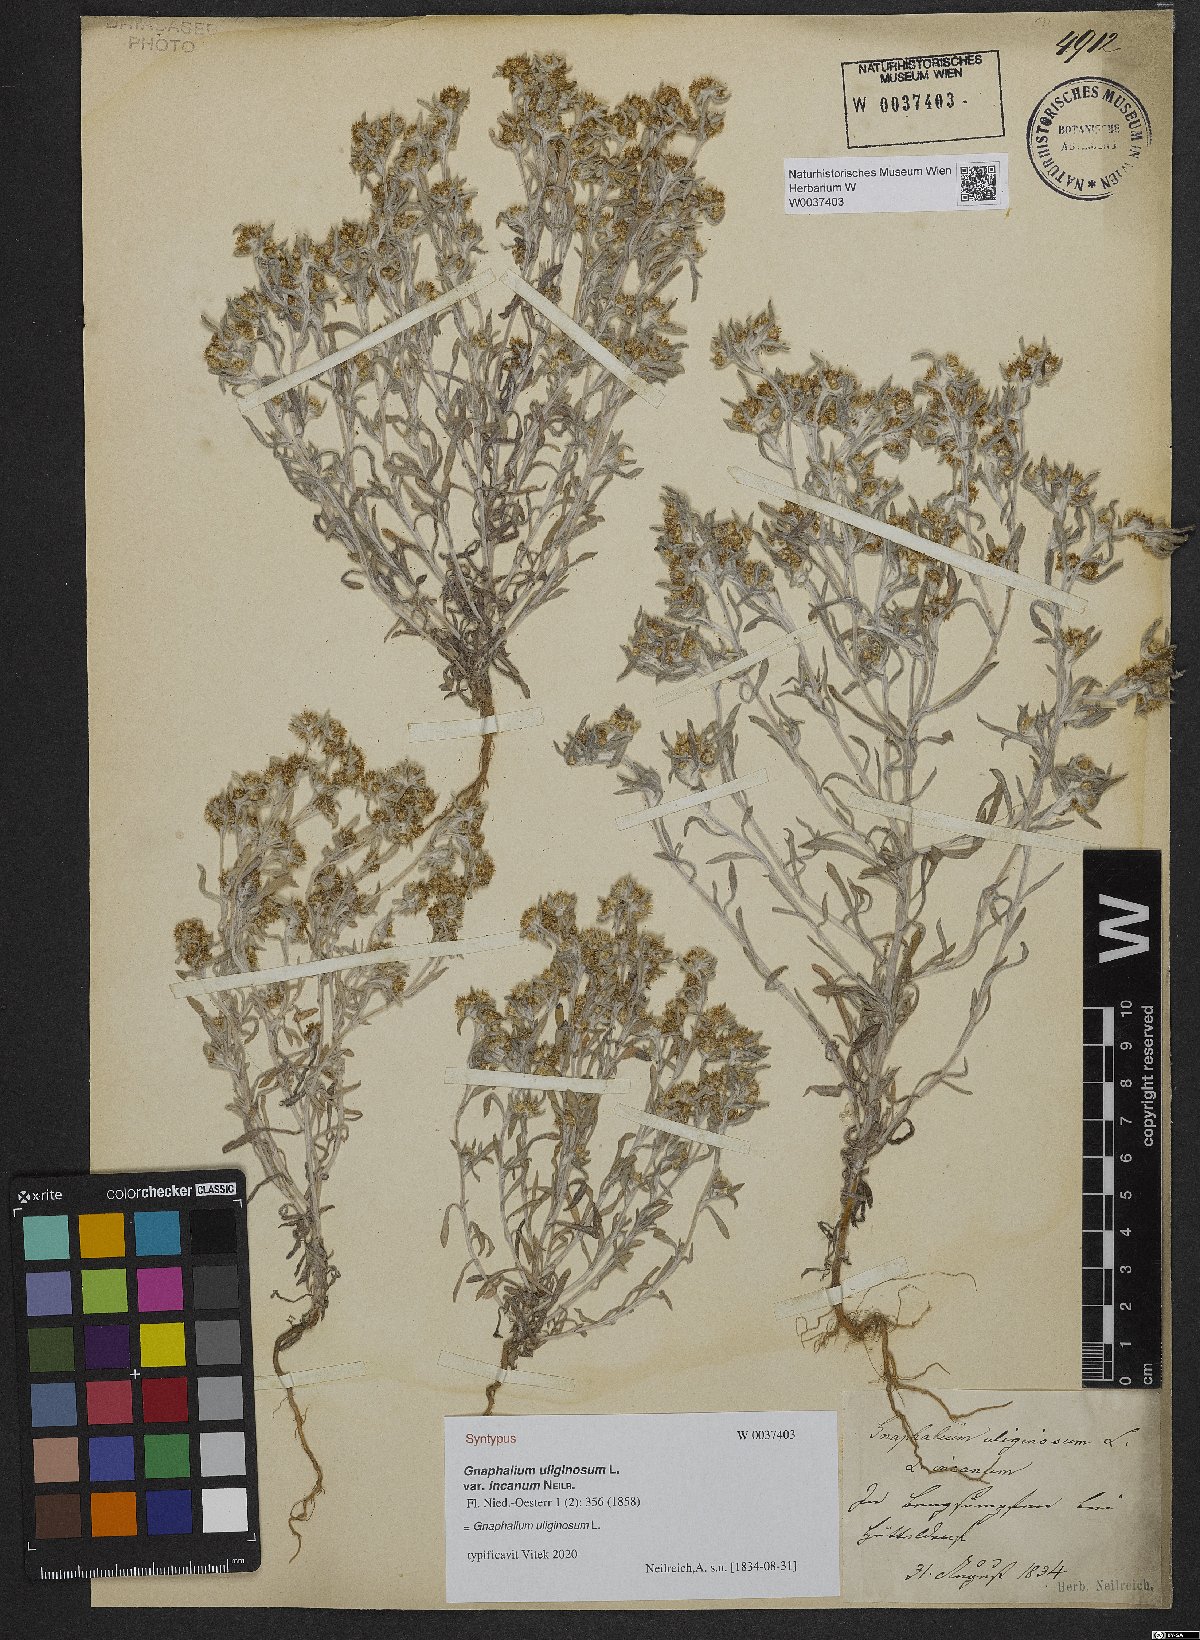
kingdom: Plantae
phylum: Tracheophyta
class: Magnoliopsida
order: Asterales
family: Asteraceae
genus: Gnaphalium
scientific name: Gnaphalium uliginosum
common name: Marsh cudweed
